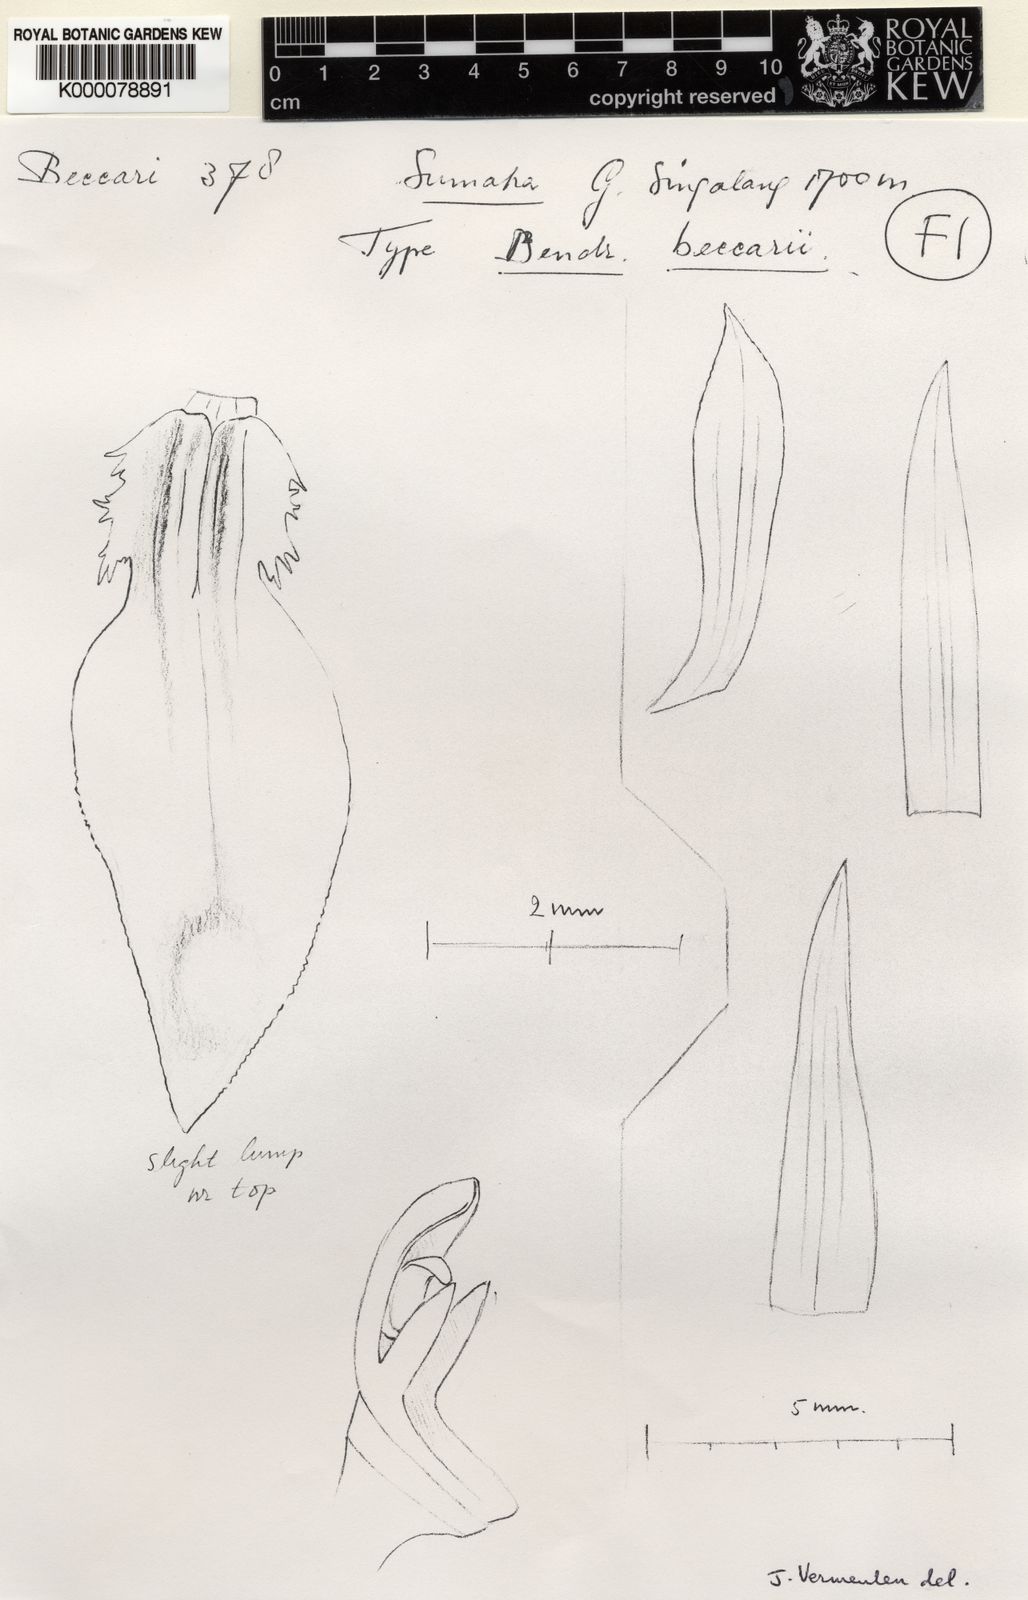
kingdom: Plantae
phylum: Tracheophyta
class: Liliopsida
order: Asparagales
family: Orchidaceae
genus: Coelogyne
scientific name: Coelogyne singalangensis
